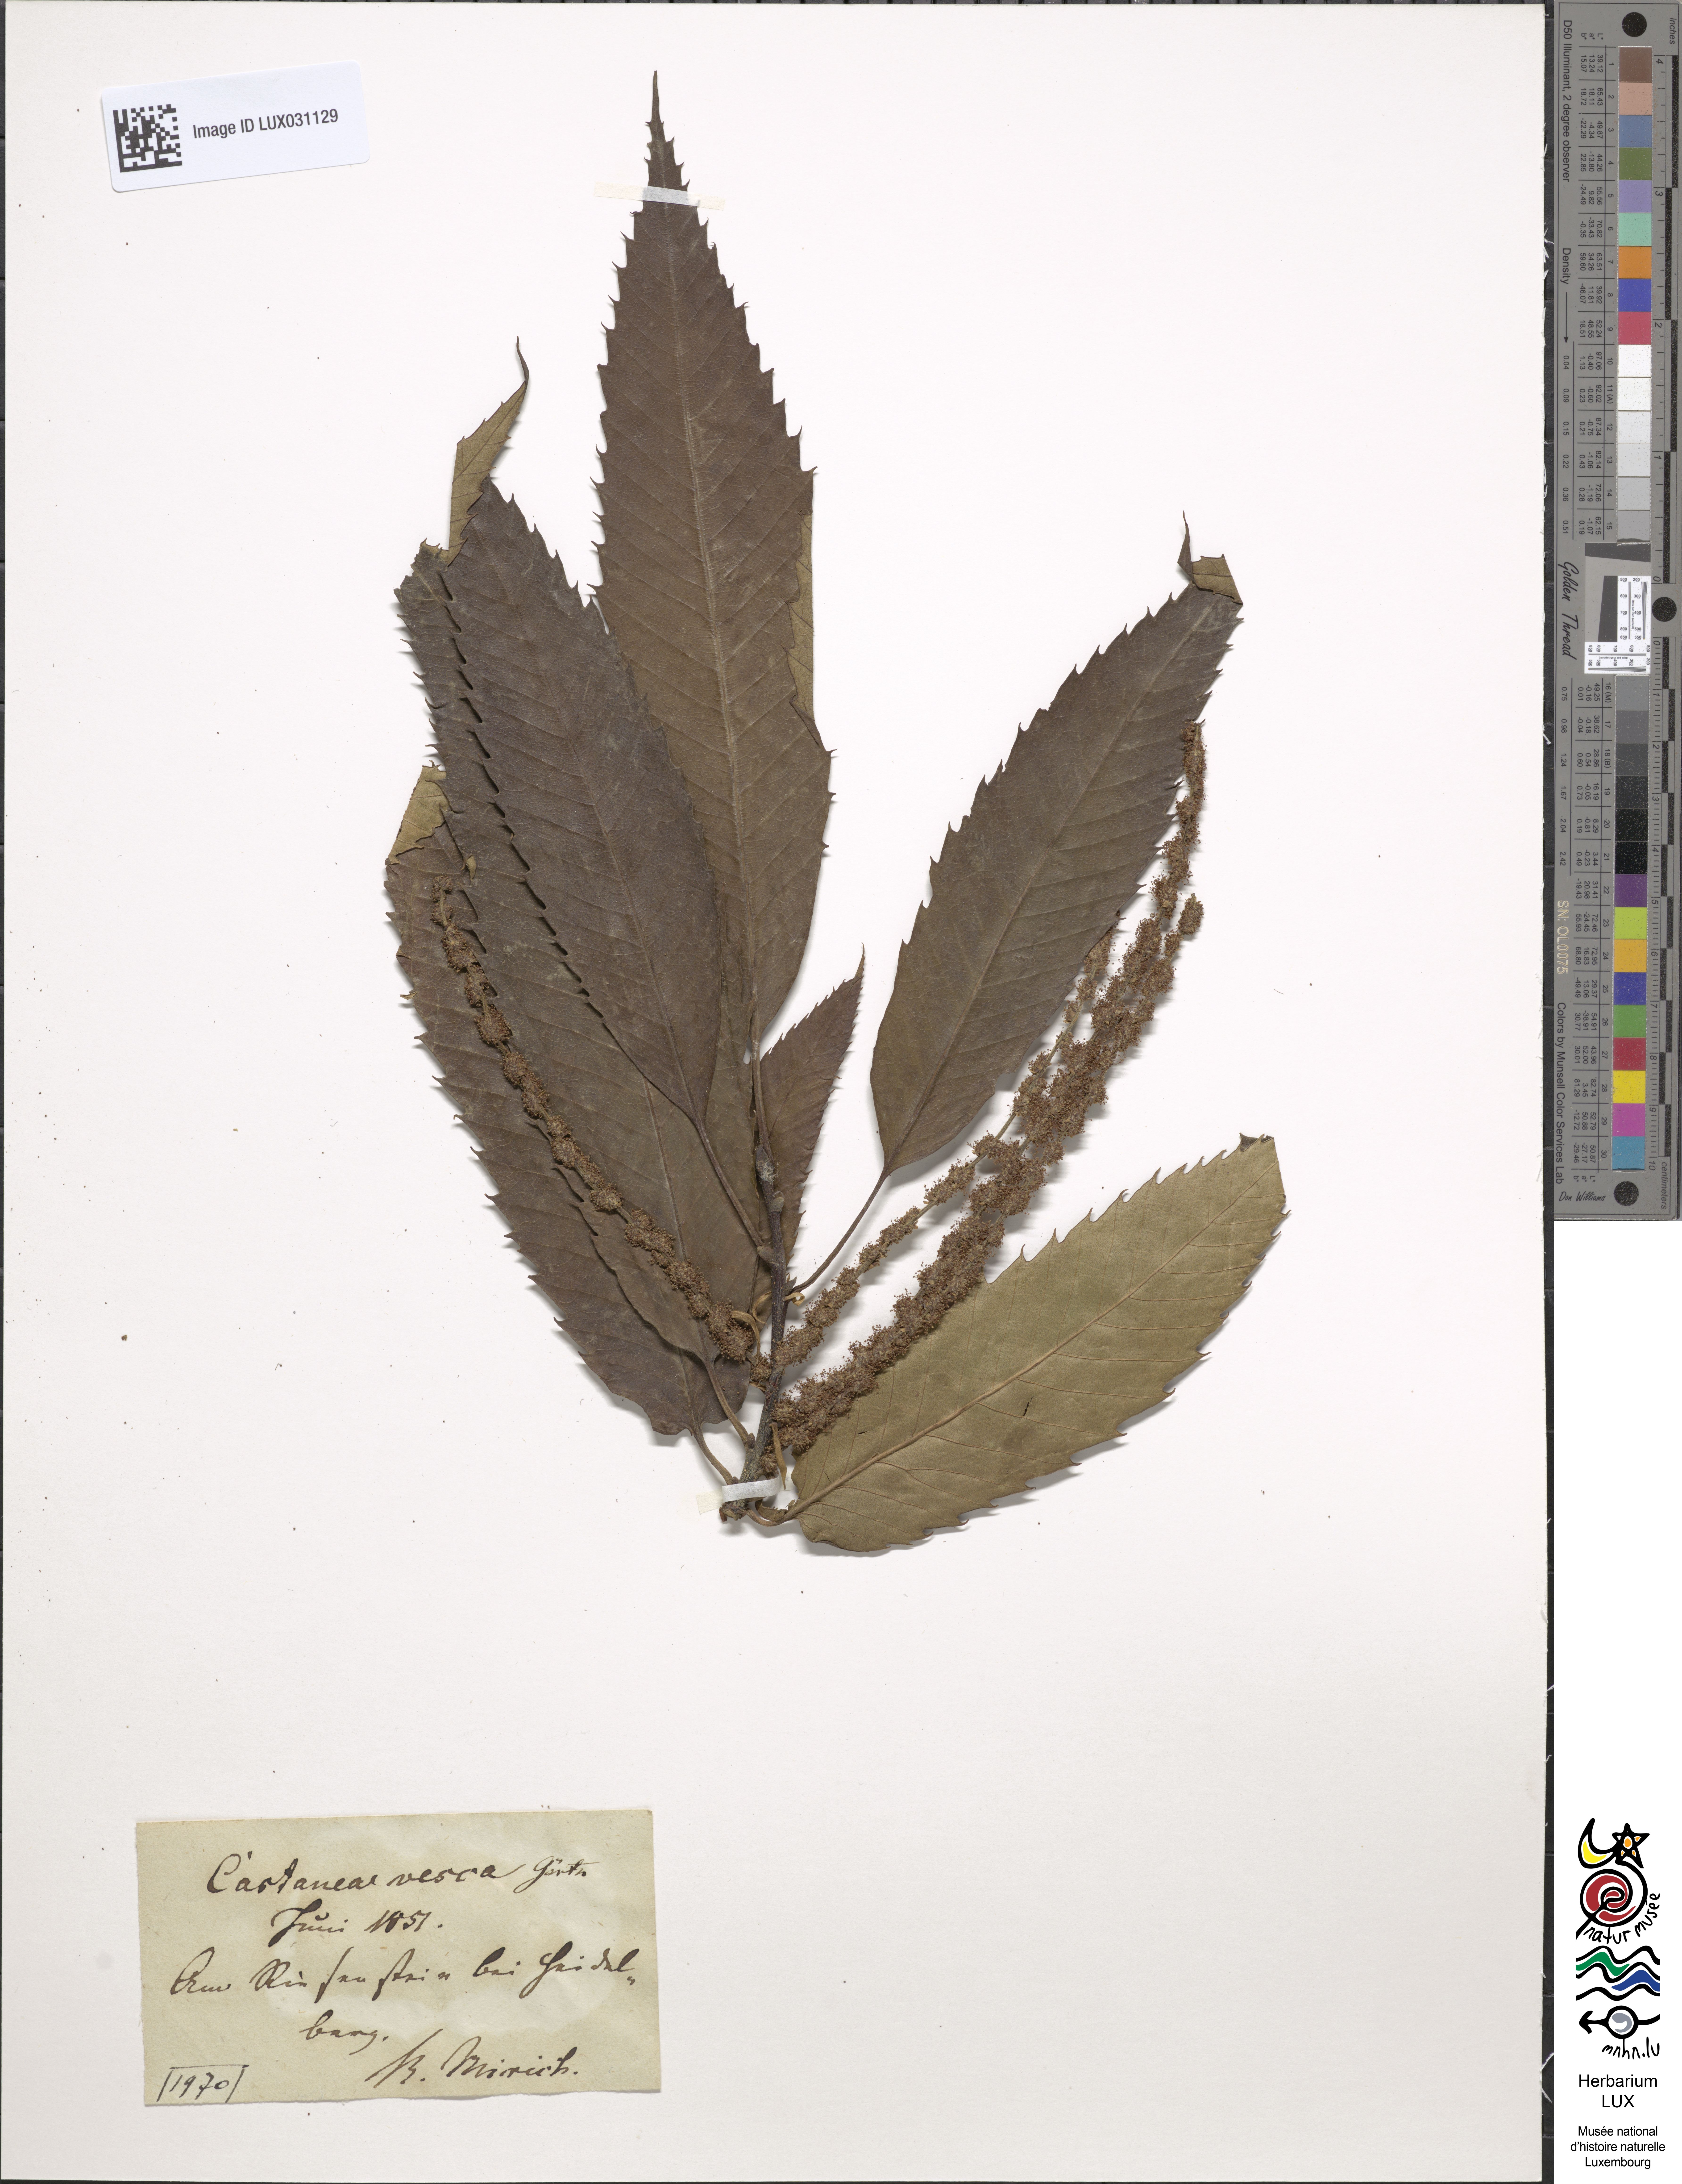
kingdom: Plantae
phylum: Tracheophyta
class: Magnoliopsida
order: Fagales
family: Fagaceae
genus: Castanea
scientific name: Castanea sativa
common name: Sweet chestnut
